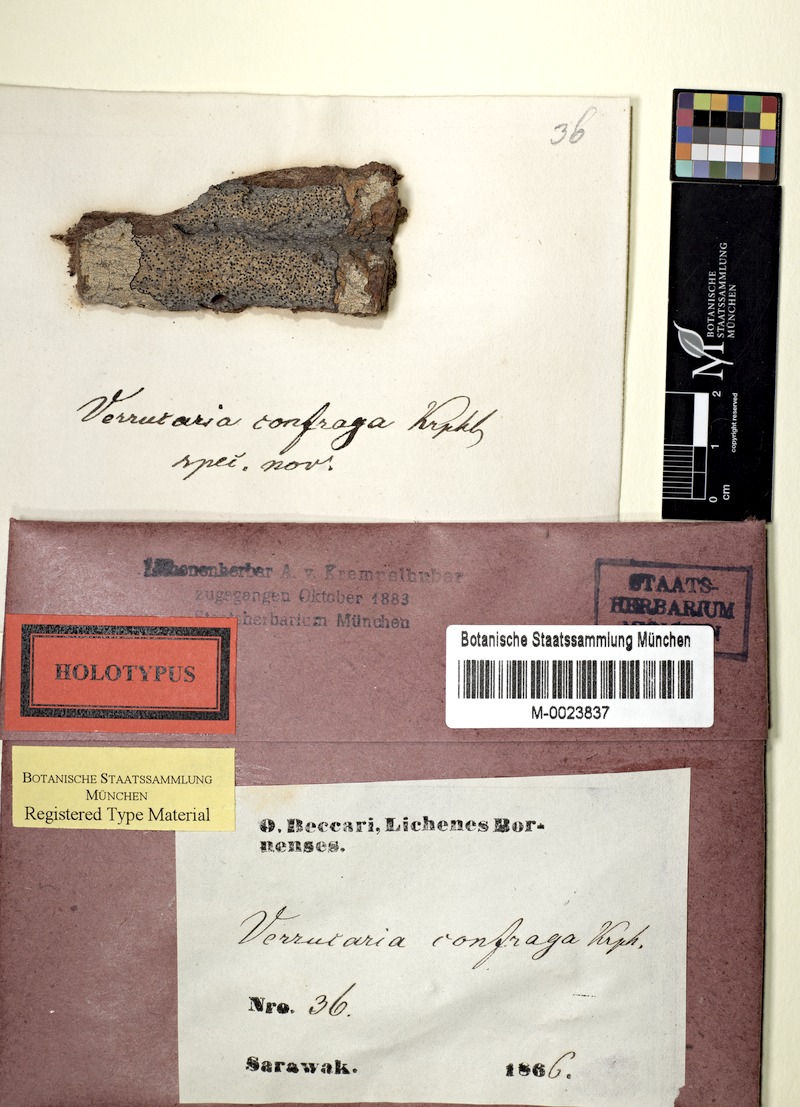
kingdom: Fungi
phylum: Ascomycota
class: Lecanoromycetes
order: Pertusariales
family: Pertusariaceae
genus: Porina
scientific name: Porina
